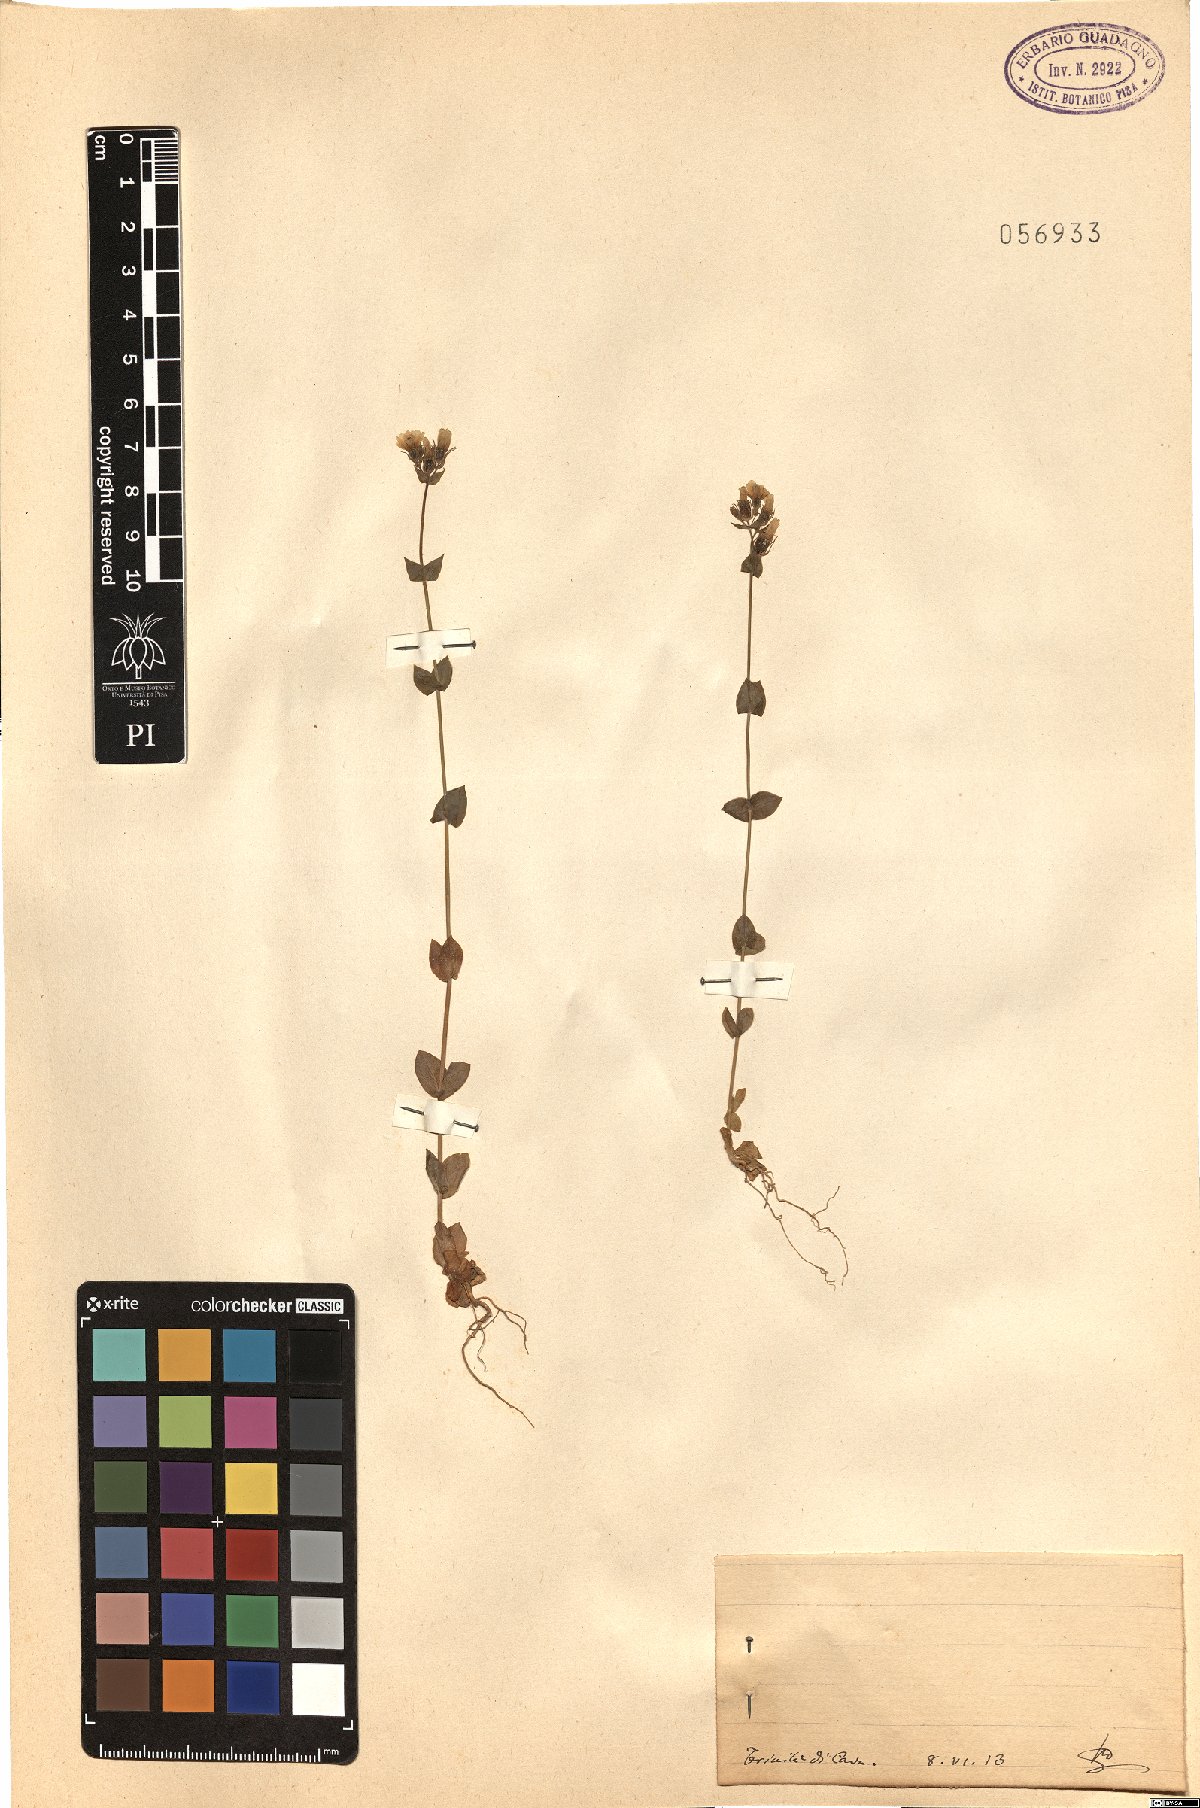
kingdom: Plantae
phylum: Tracheophyta
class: Magnoliopsida
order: Gentianales
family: Gentianaceae
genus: Blackstonia
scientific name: Blackstonia
